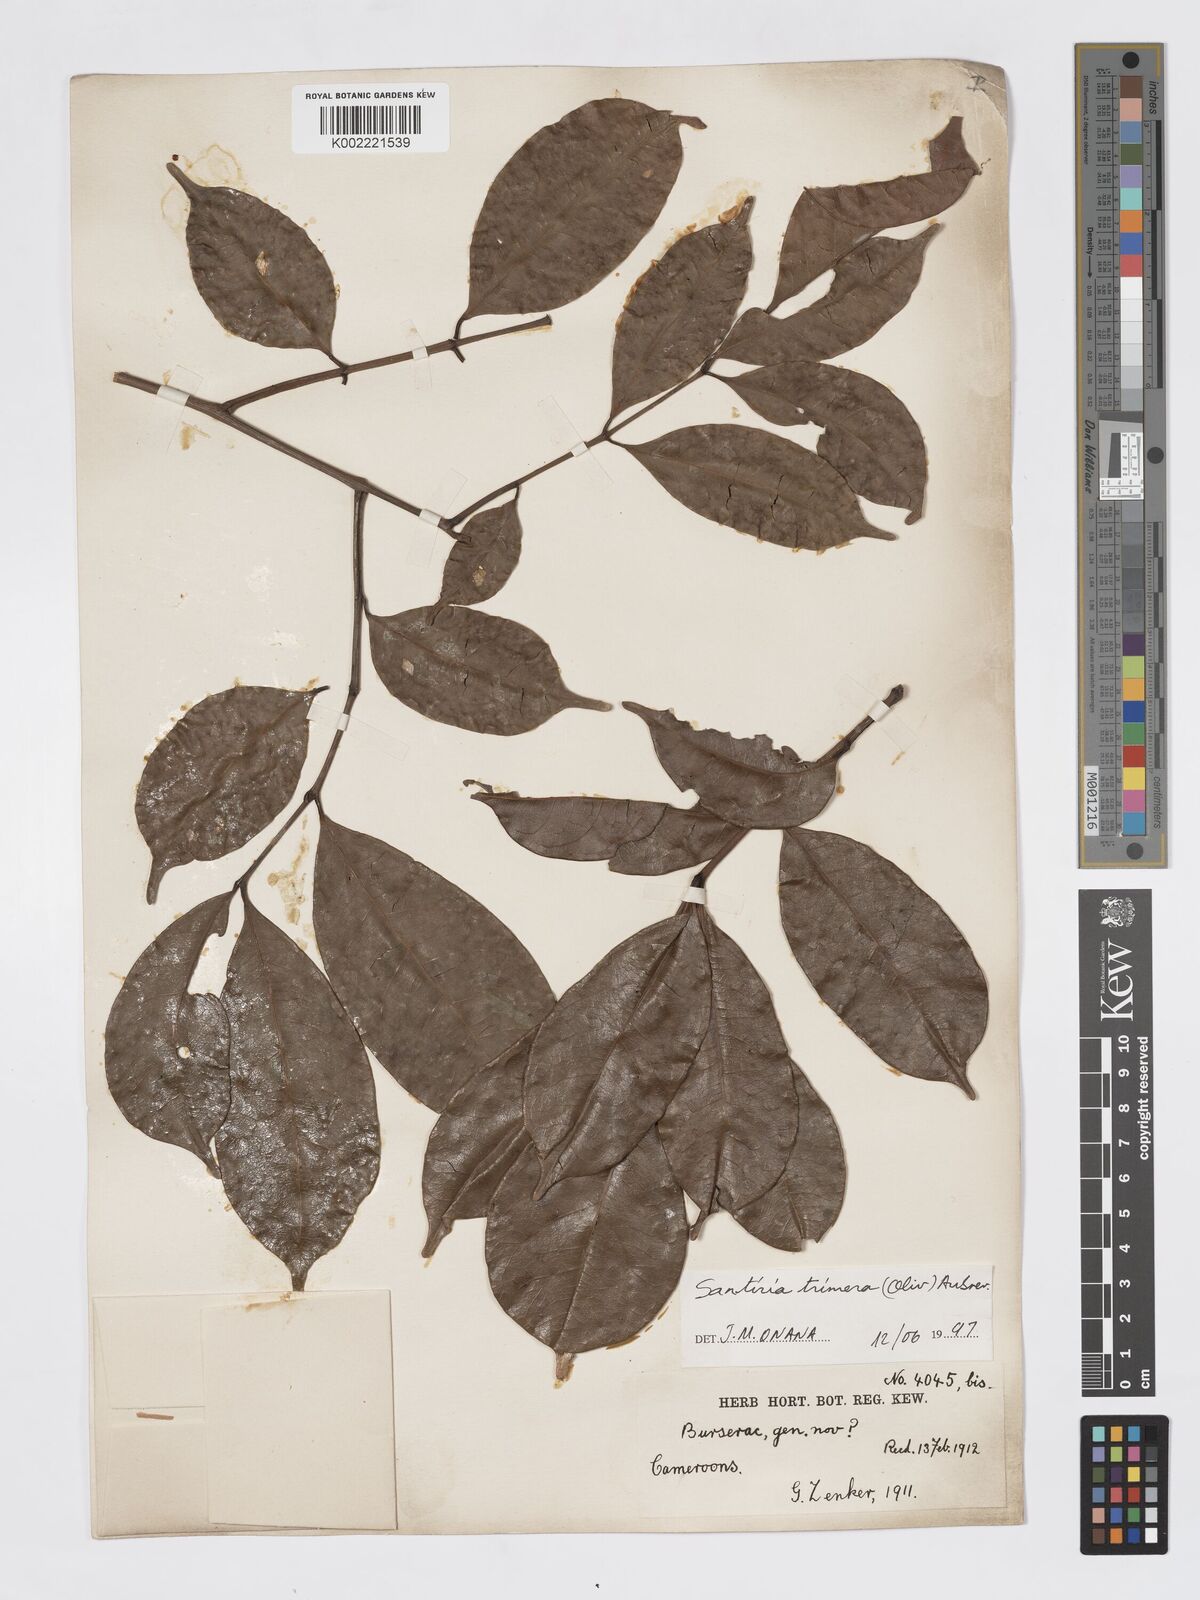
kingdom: Plantae
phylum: Tracheophyta
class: Magnoliopsida
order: Sapindales
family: Burseraceae
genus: Pachylobus
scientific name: Pachylobus trimerus
